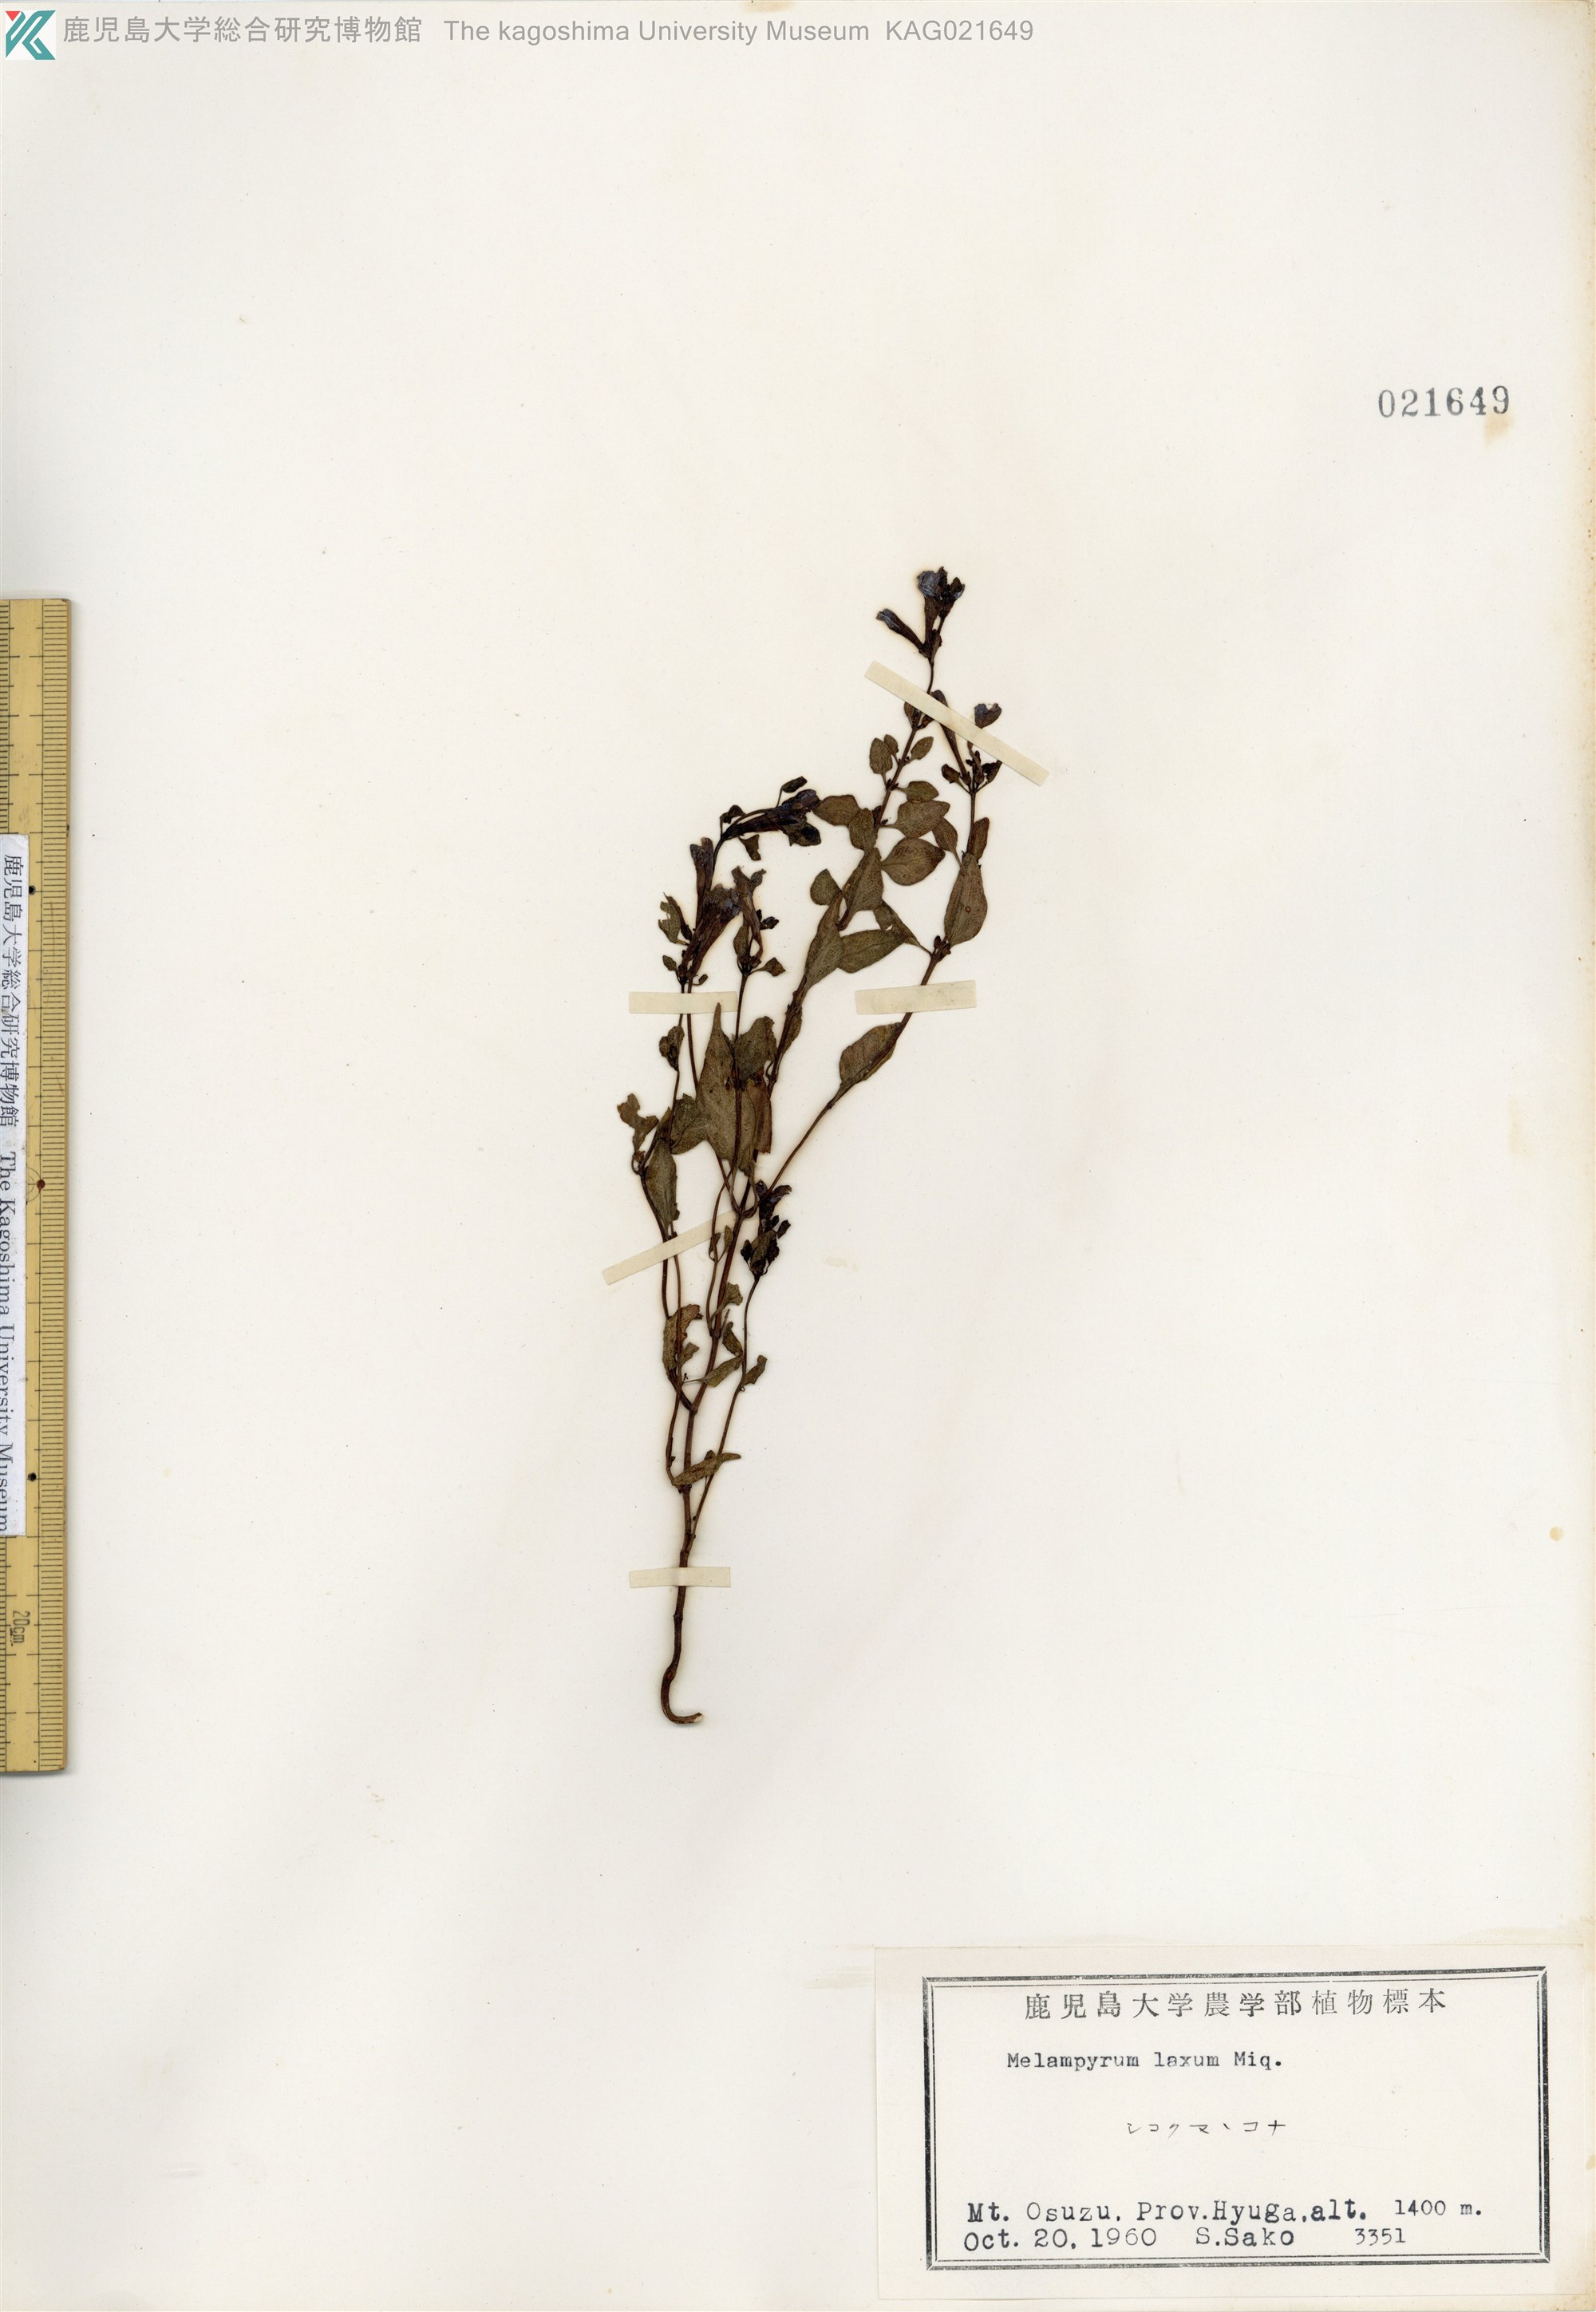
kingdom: Plantae
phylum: Tracheophyta
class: Magnoliopsida
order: Lamiales
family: Orobanchaceae
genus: Melampyrum
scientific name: Melampyrum laxum
